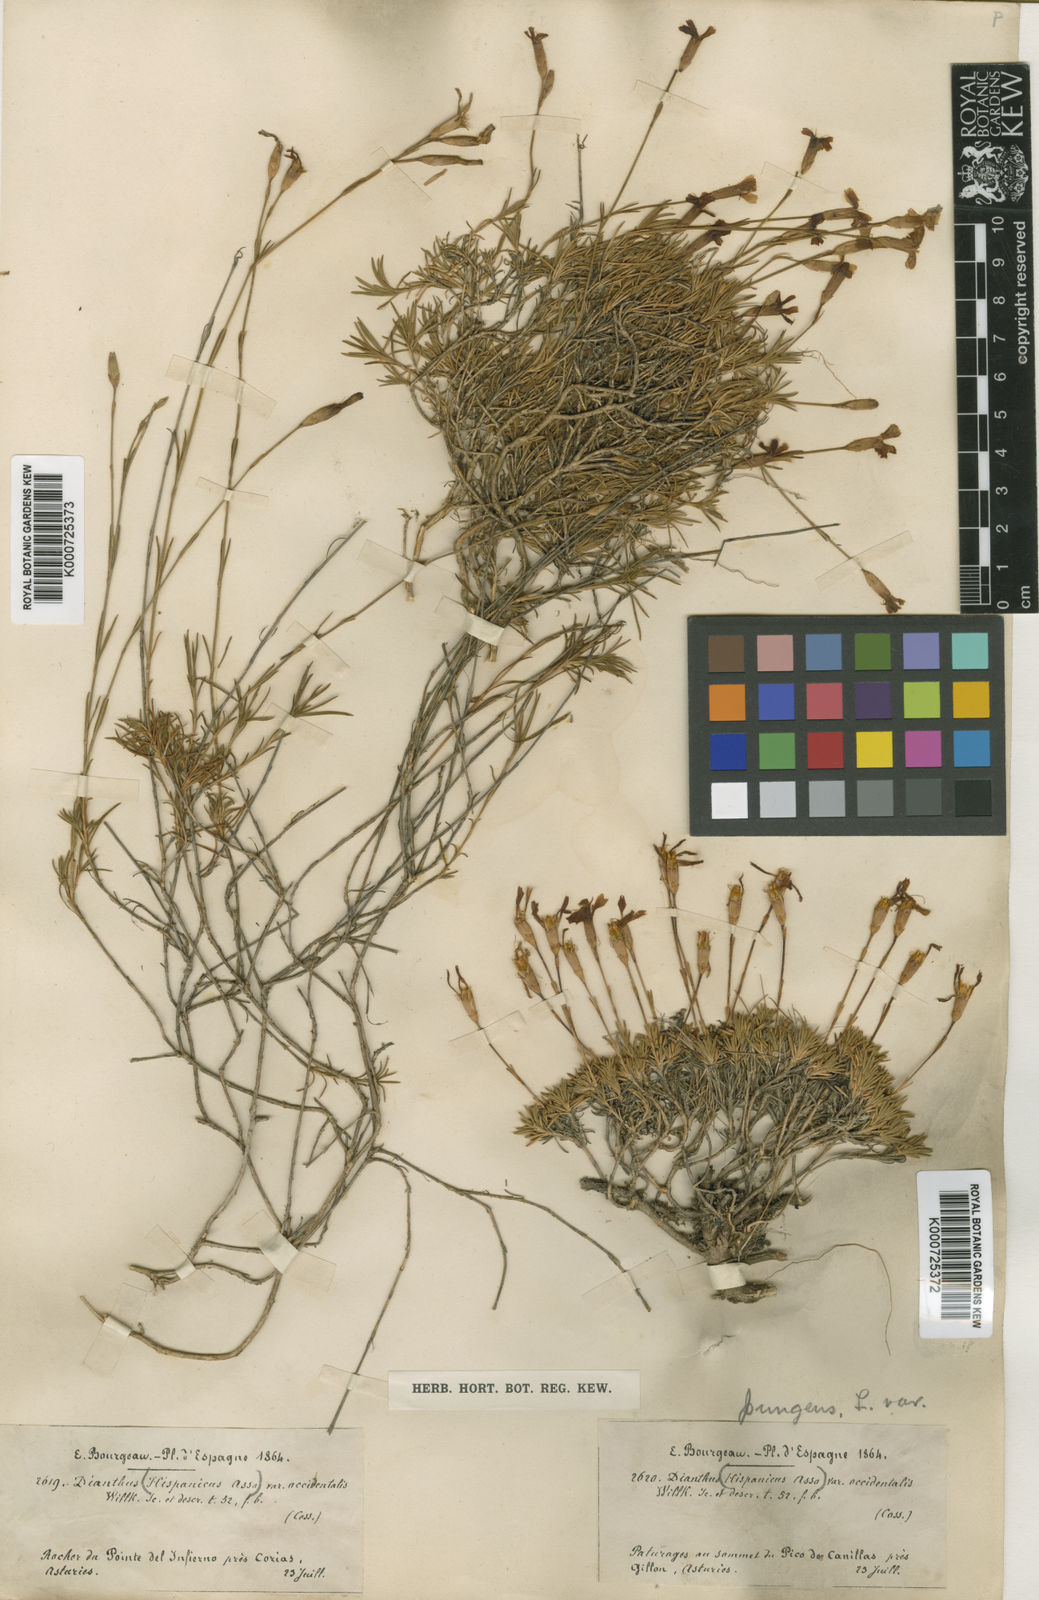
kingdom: Plantae
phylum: Tracheophyta
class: Magnoliopsida
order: Caryophyllales
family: Caryophyllaceae
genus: Dianthus
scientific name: Dianthus langeanus
